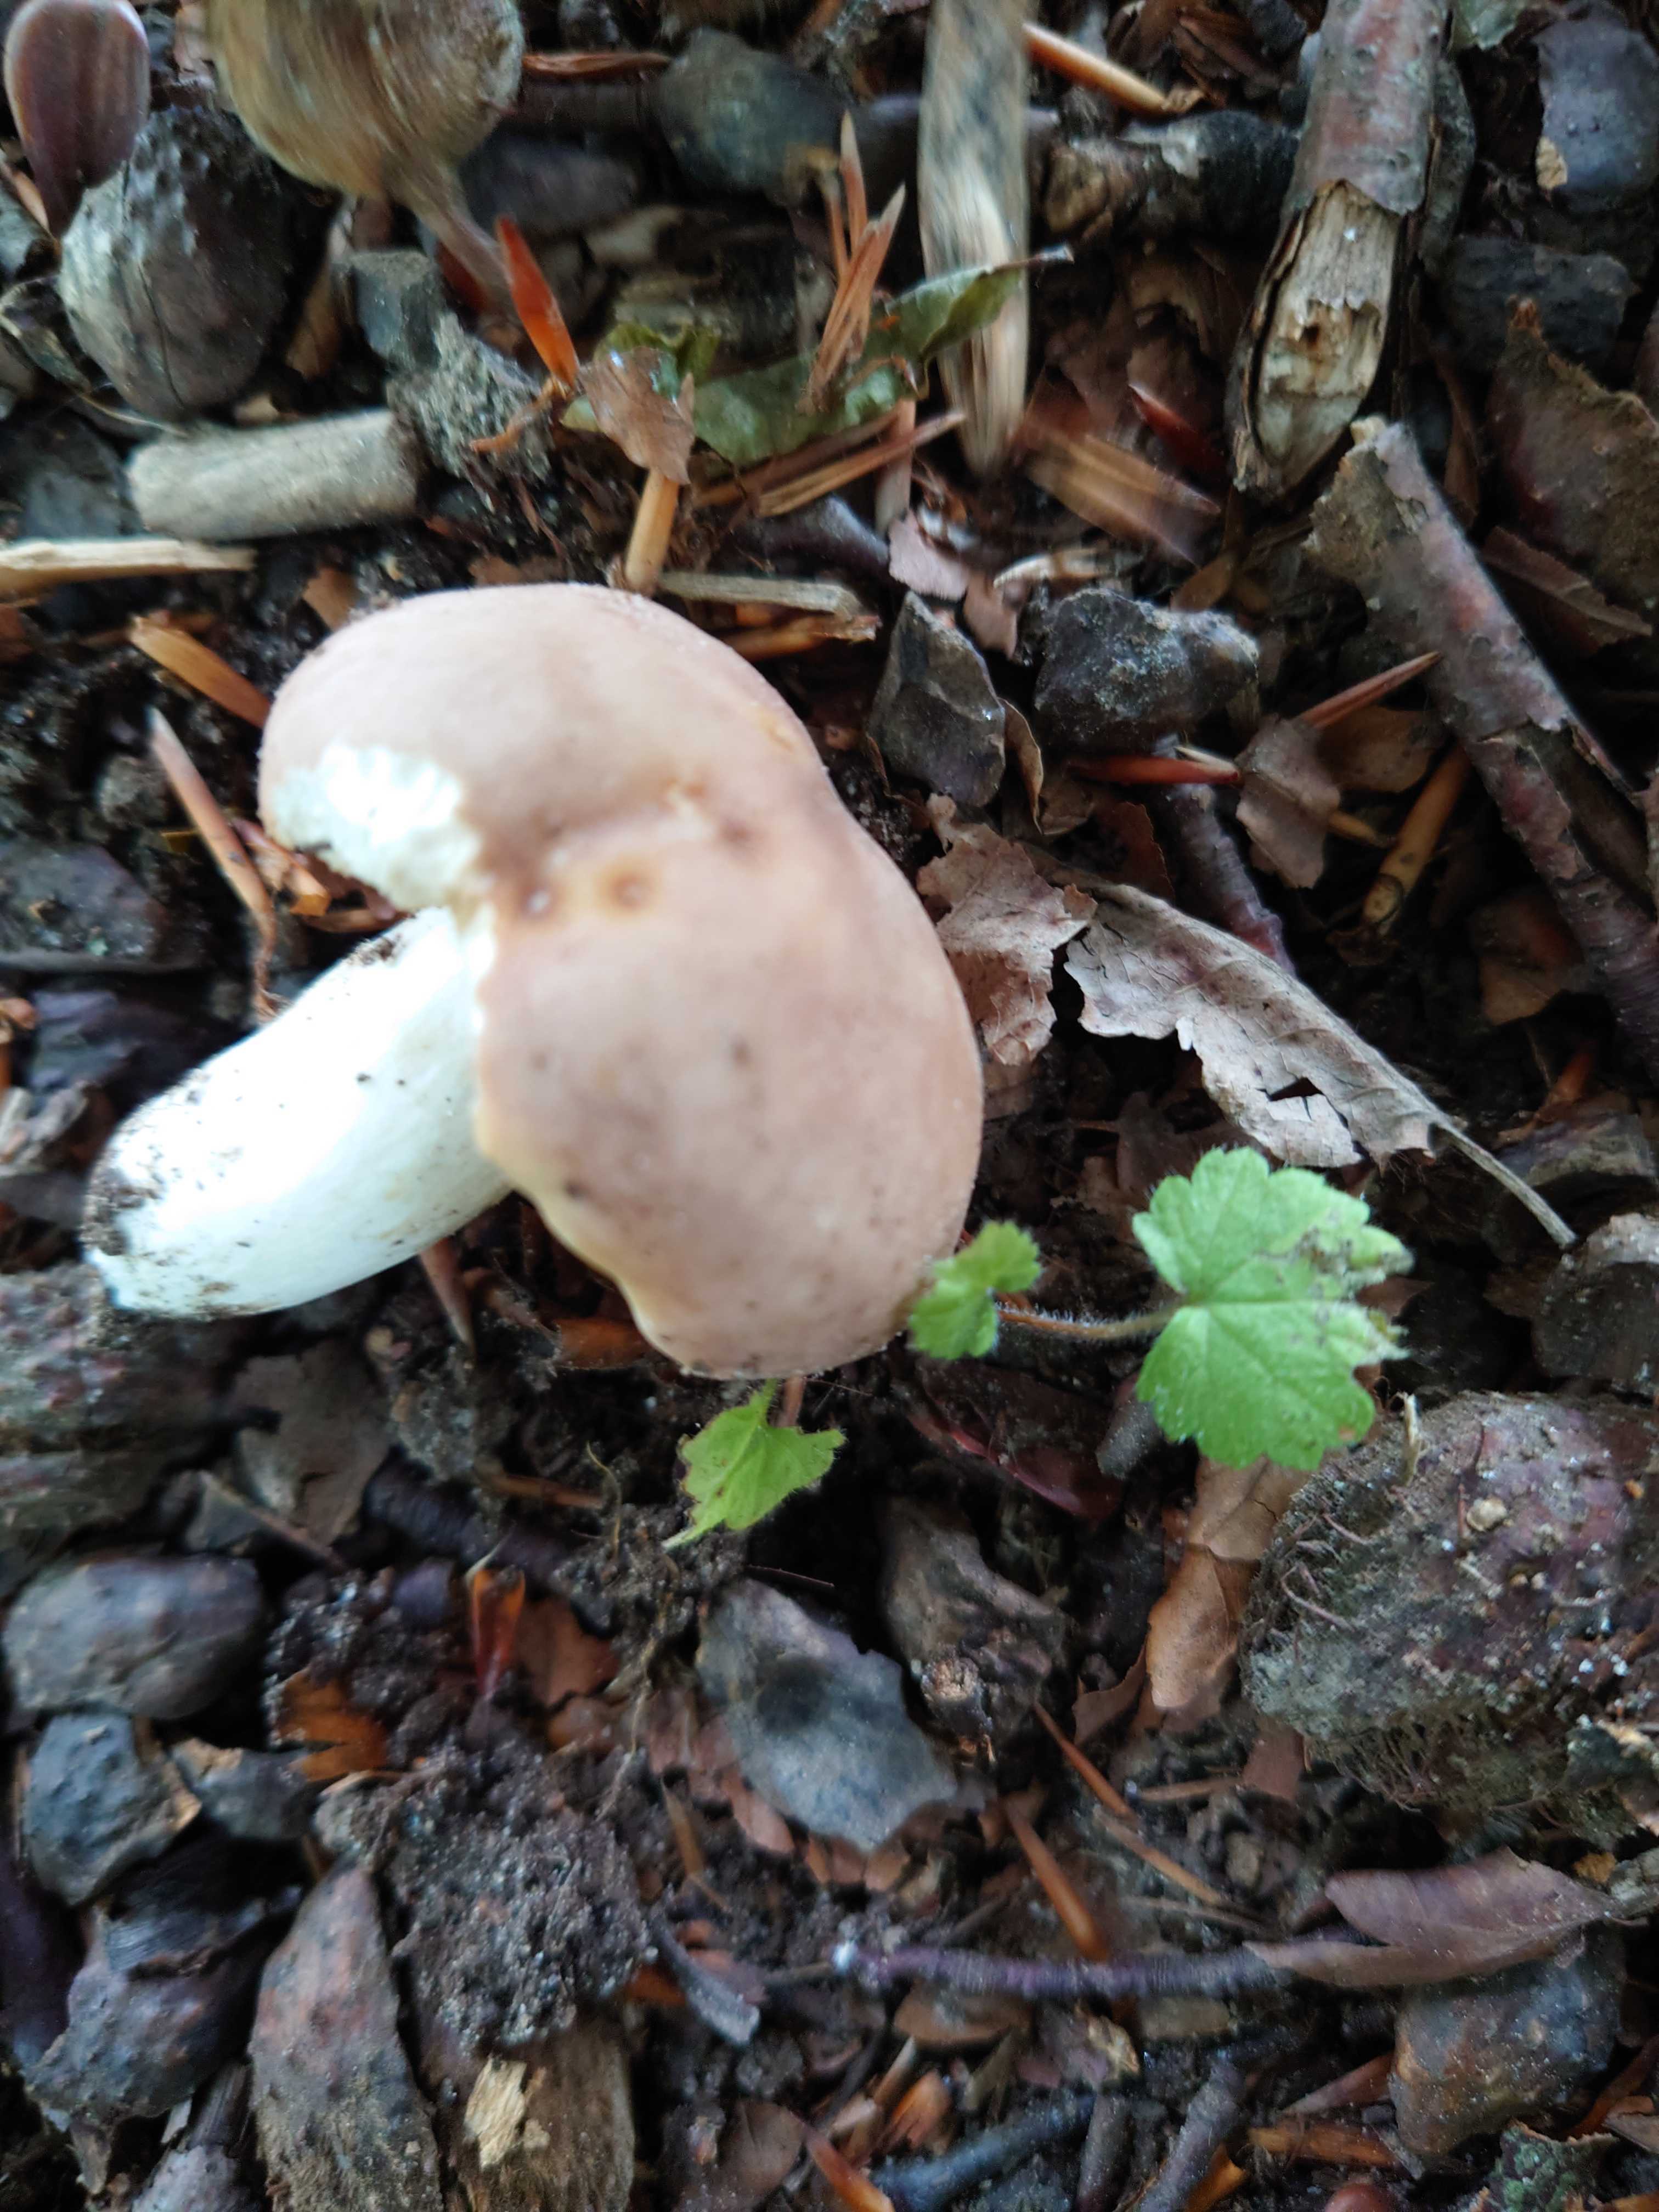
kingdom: Fungi
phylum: Basidiomycota
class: Agaricomycetes
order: Russulales
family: Russulaceae
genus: Russula
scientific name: Russula vesca
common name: spiselig skørhat
